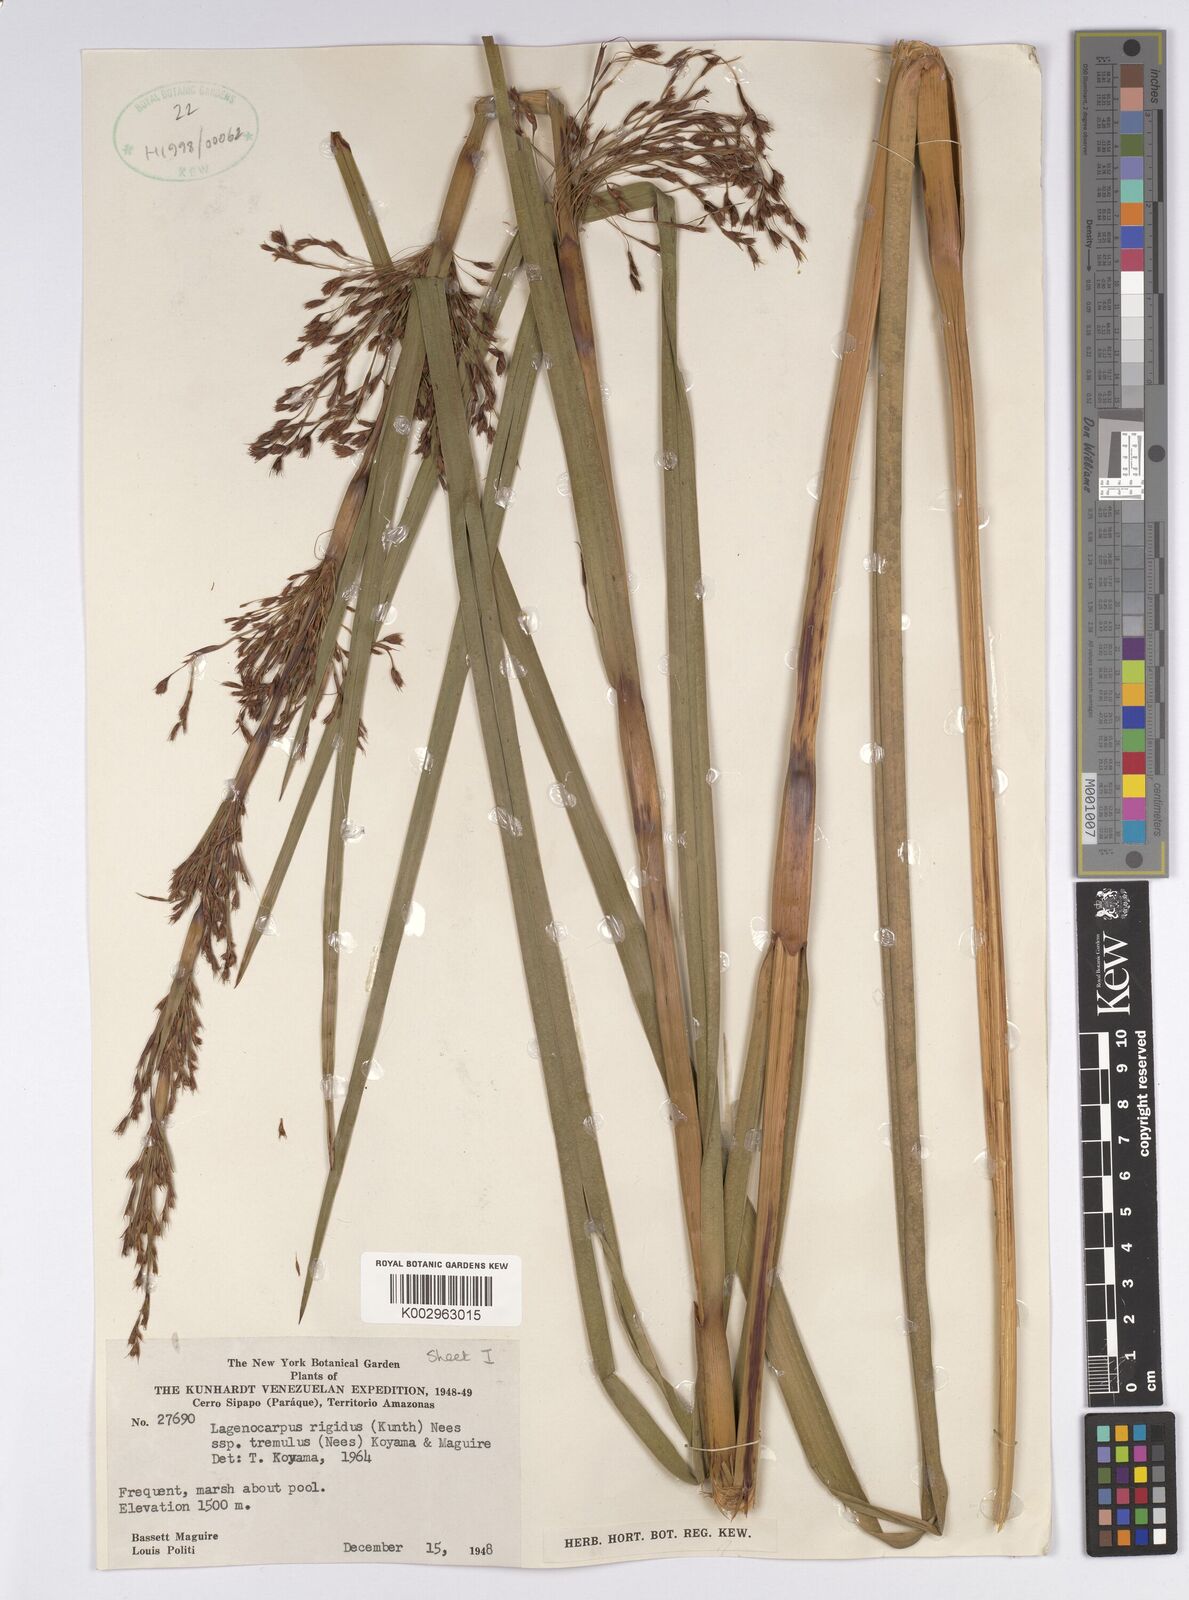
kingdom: Plantae
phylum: Tracheophyta
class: Liliopsida
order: Poales
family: Cyperaceae
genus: Lagenocarpus
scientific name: Lagenocarpus rigidus
